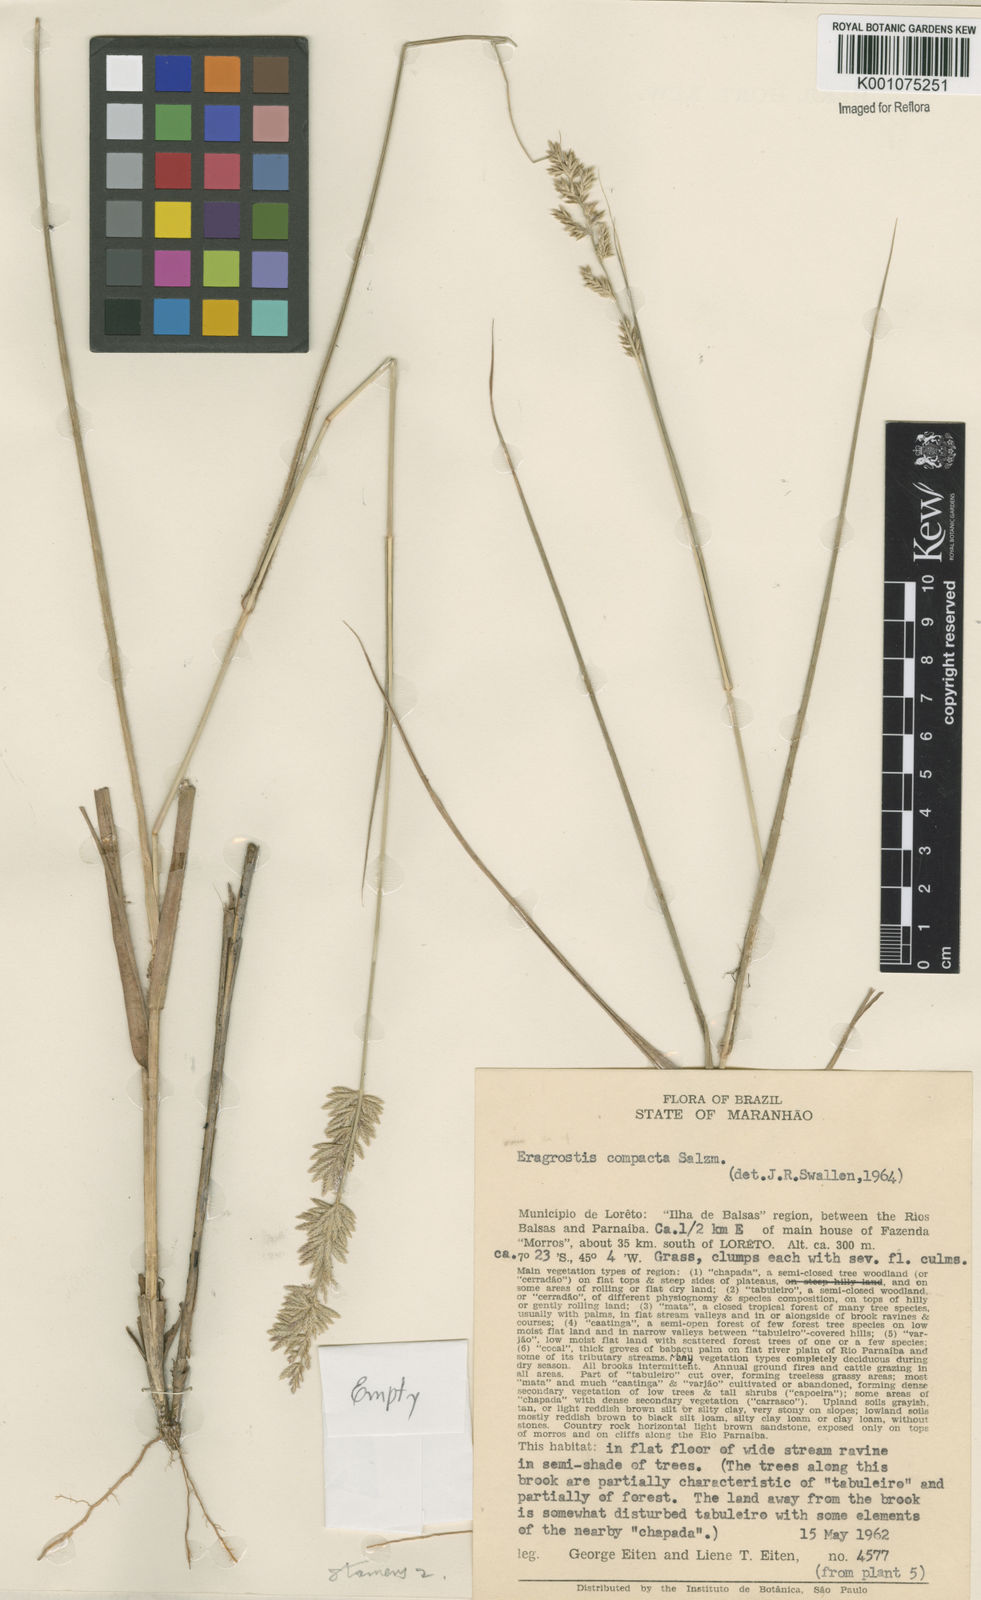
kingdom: Plantae
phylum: Tracheophyta
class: Liliopsida
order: Poales
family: Poaceae
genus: Eragrostis
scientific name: Eragrostis secundiflora
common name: Red love grass
